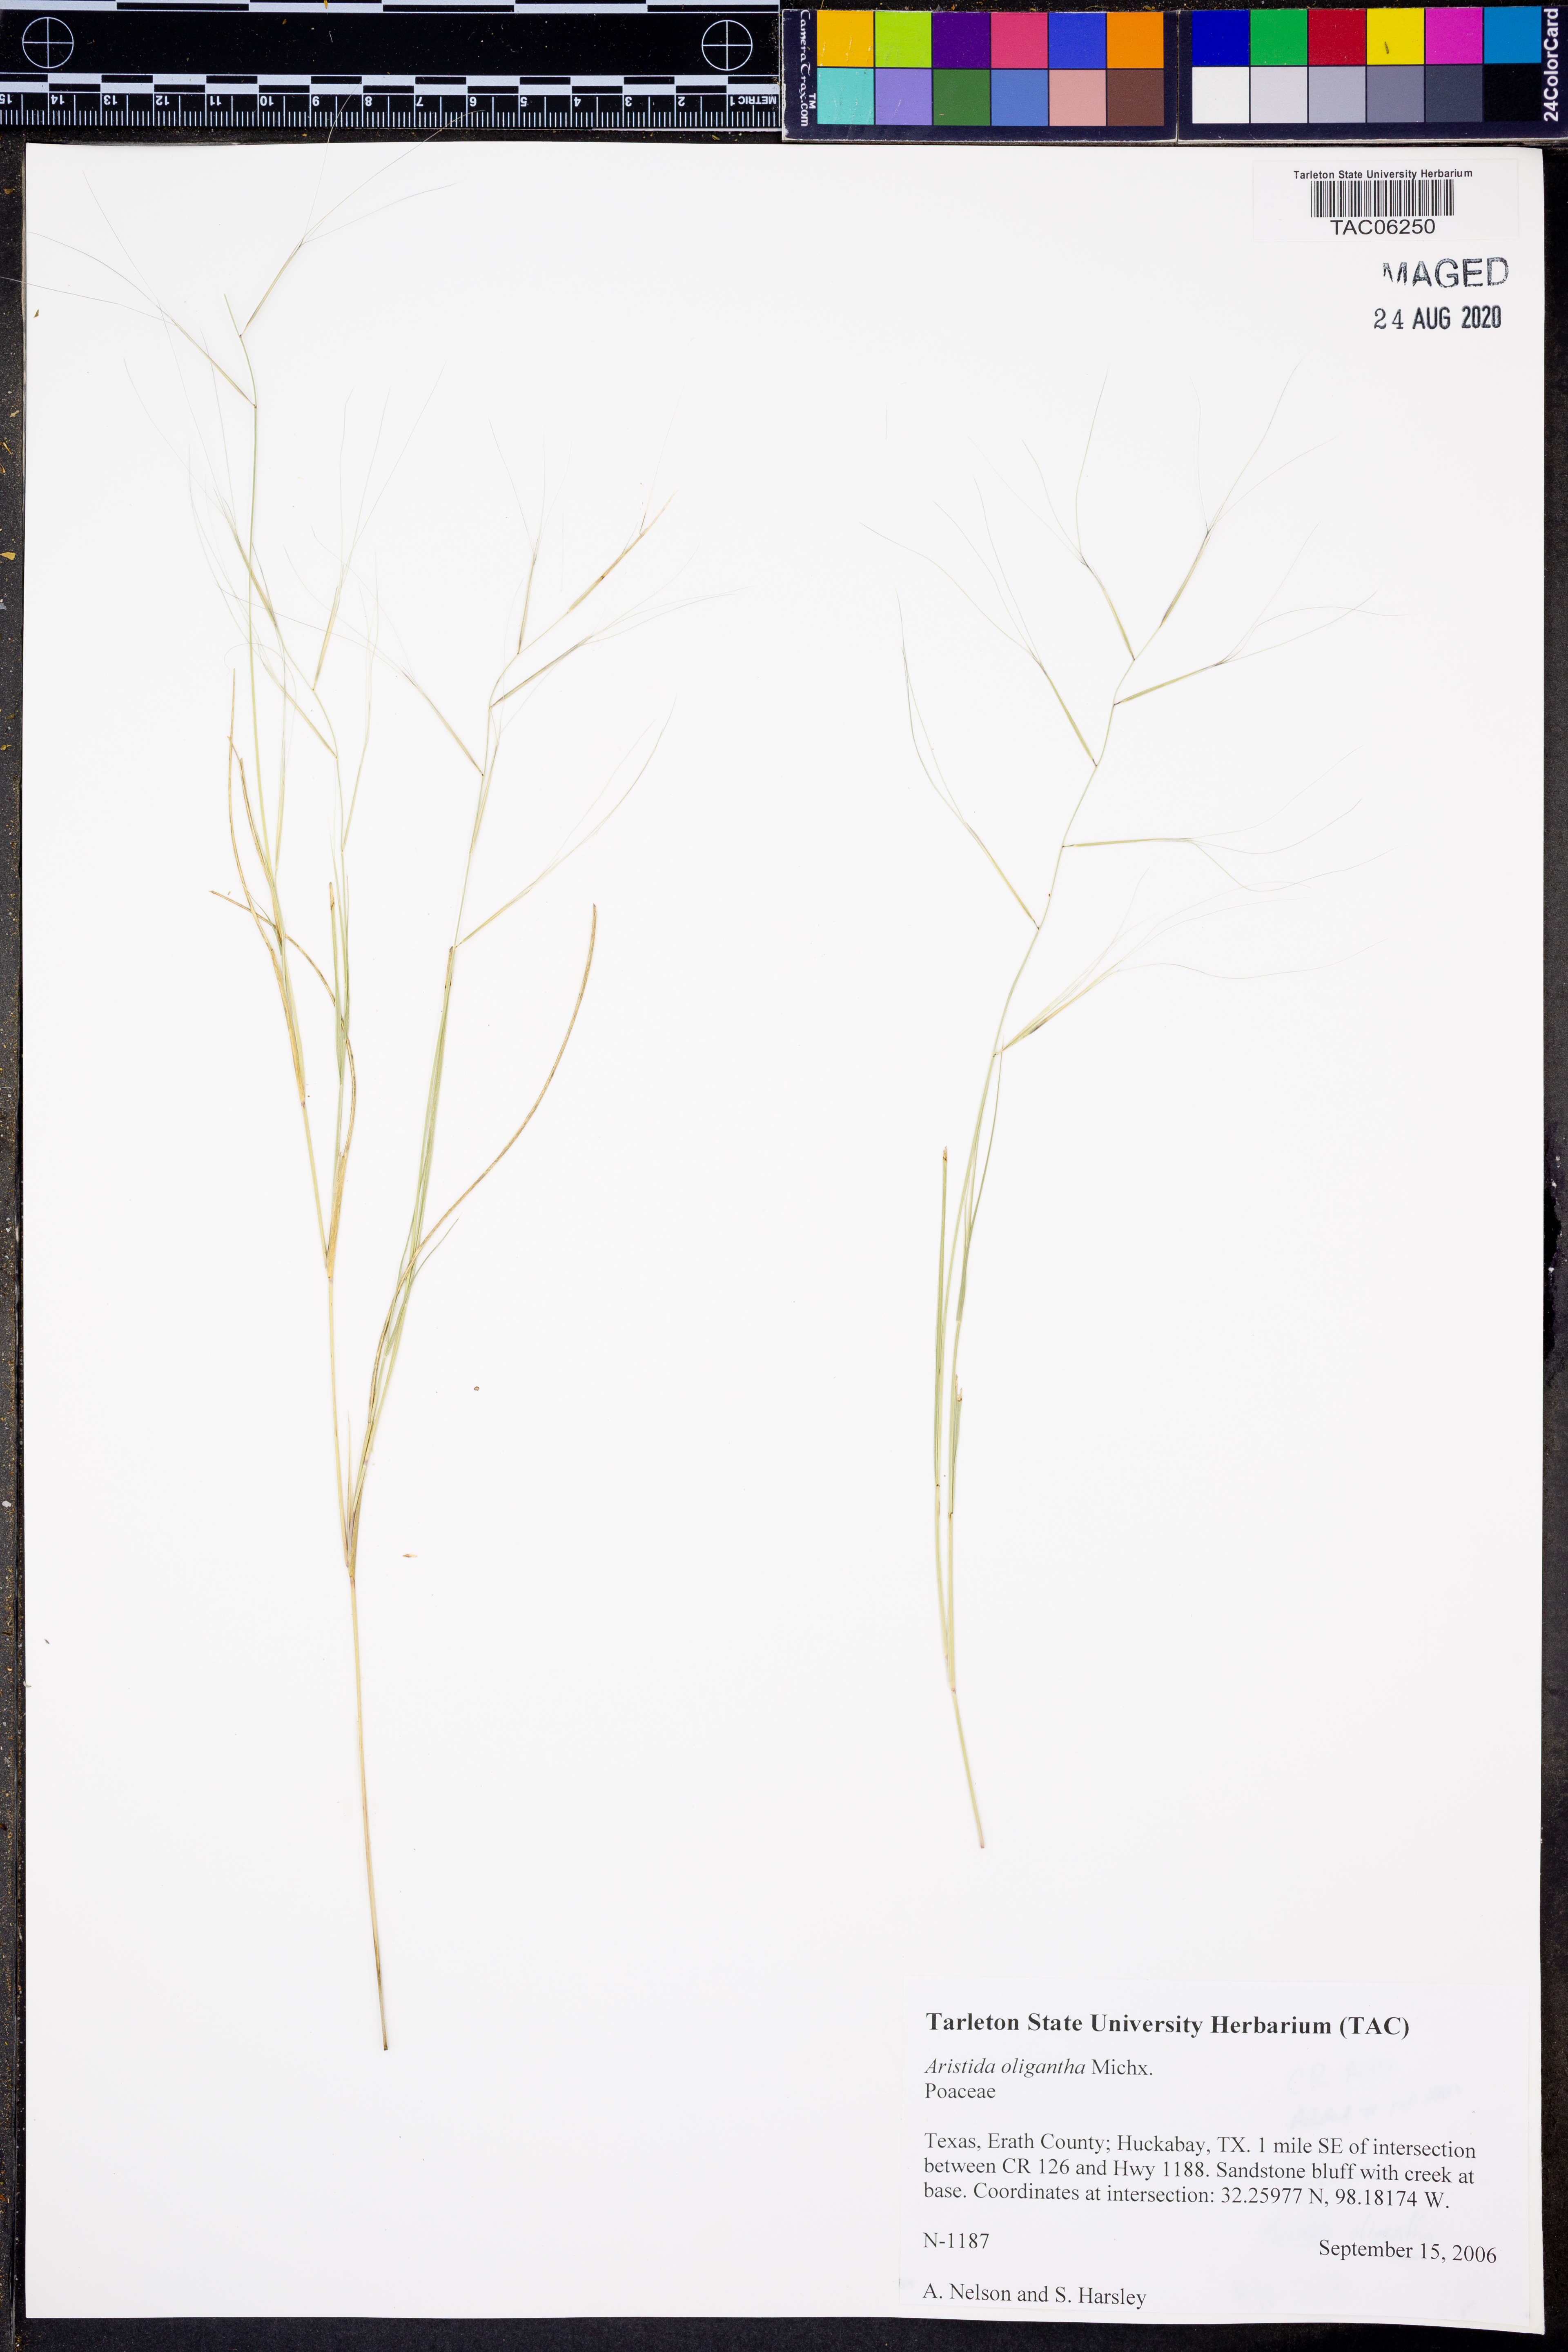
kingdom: Plantae
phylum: Tracheophyta
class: Liliopsida
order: Poales
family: Poaceae
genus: Aristida
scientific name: Aristida oligantha
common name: Few-flowered aristida
